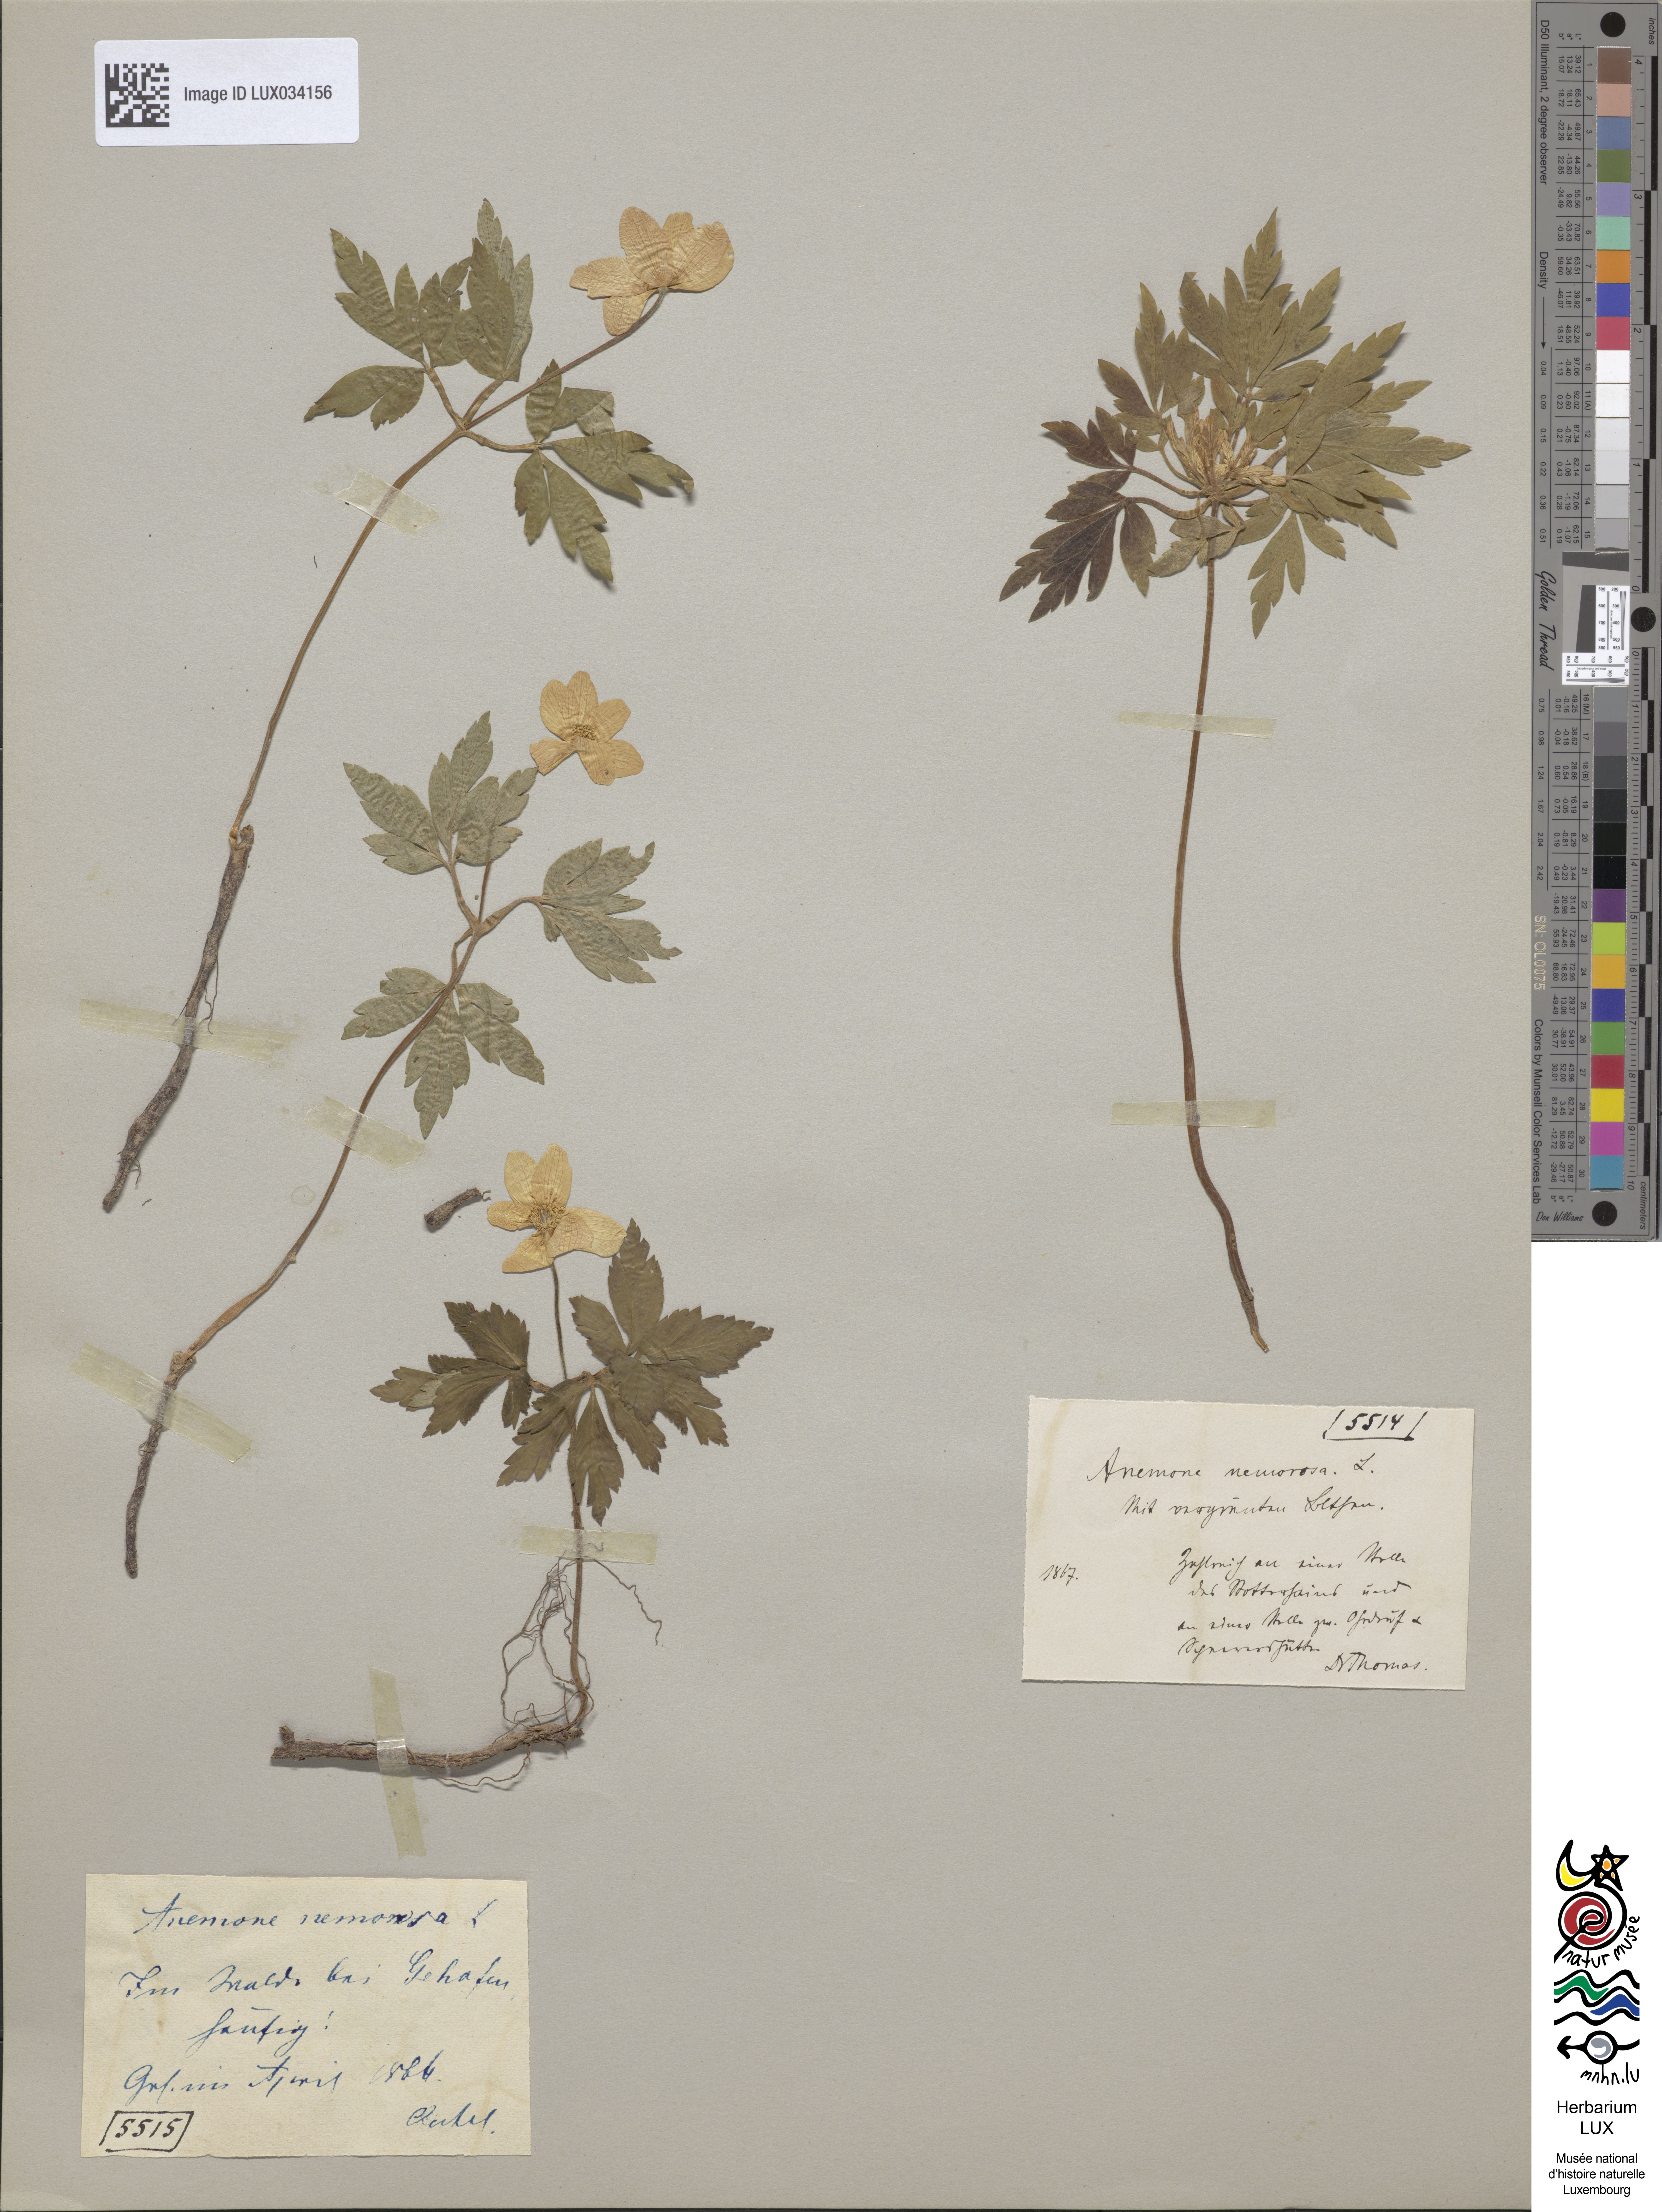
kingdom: Plantae
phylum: Tracheophyta
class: Magnoliopsida
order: Ranunculales
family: Ranunculaceae
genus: Anemone
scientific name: Anemone nemorosa
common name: Wood anemone
